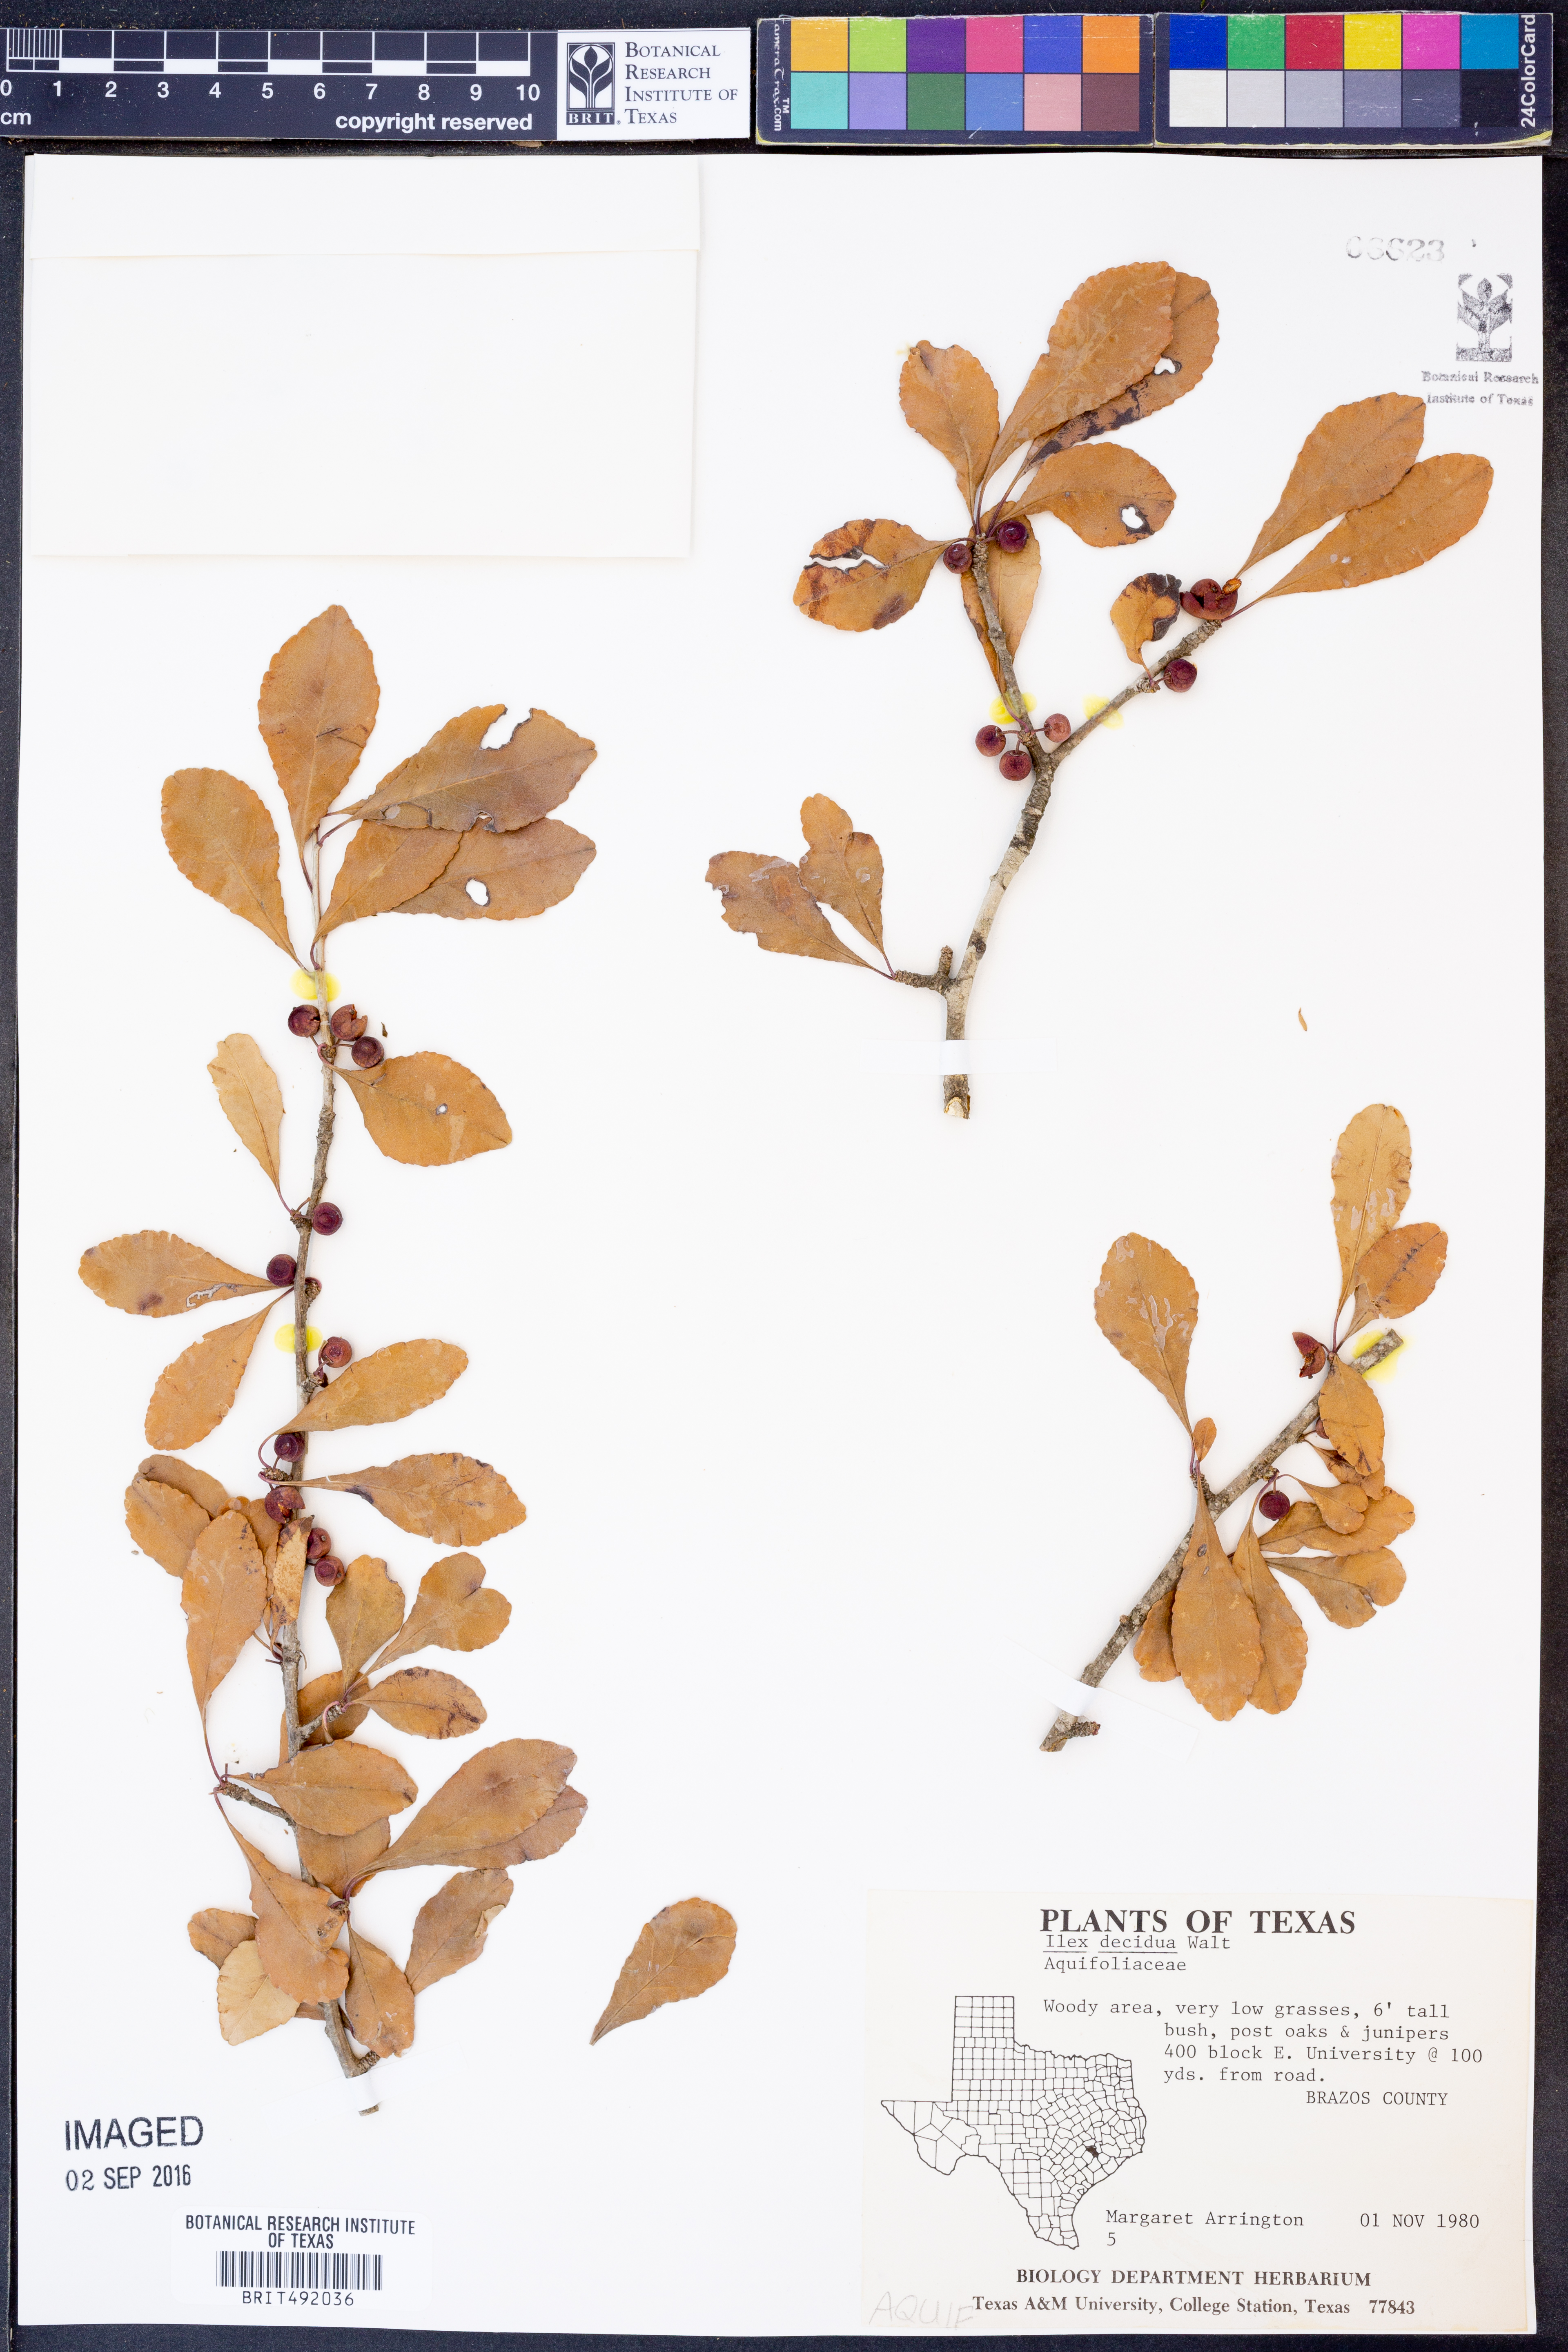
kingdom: Plantae
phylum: Tracheophyta
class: Magnoliopsida
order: Aquifoliales
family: Aquifoliaceae
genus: Ilex
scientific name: Ilex decidua
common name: Possum-haw
